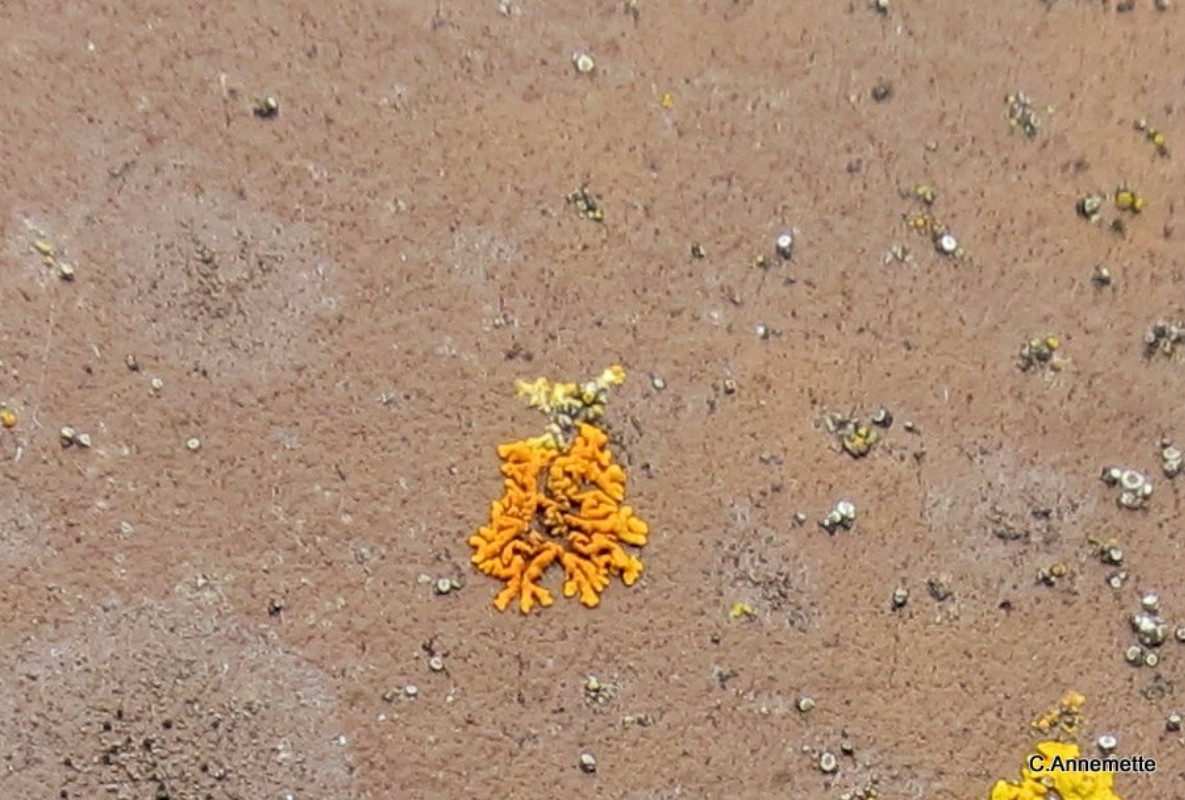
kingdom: Fungi
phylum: Ascomycota
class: Lecanoromycetes
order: Teloschistales
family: Teloschistaceae
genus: Xanthoria
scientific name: Xanthoria elegans
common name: fjeld-væggelav
